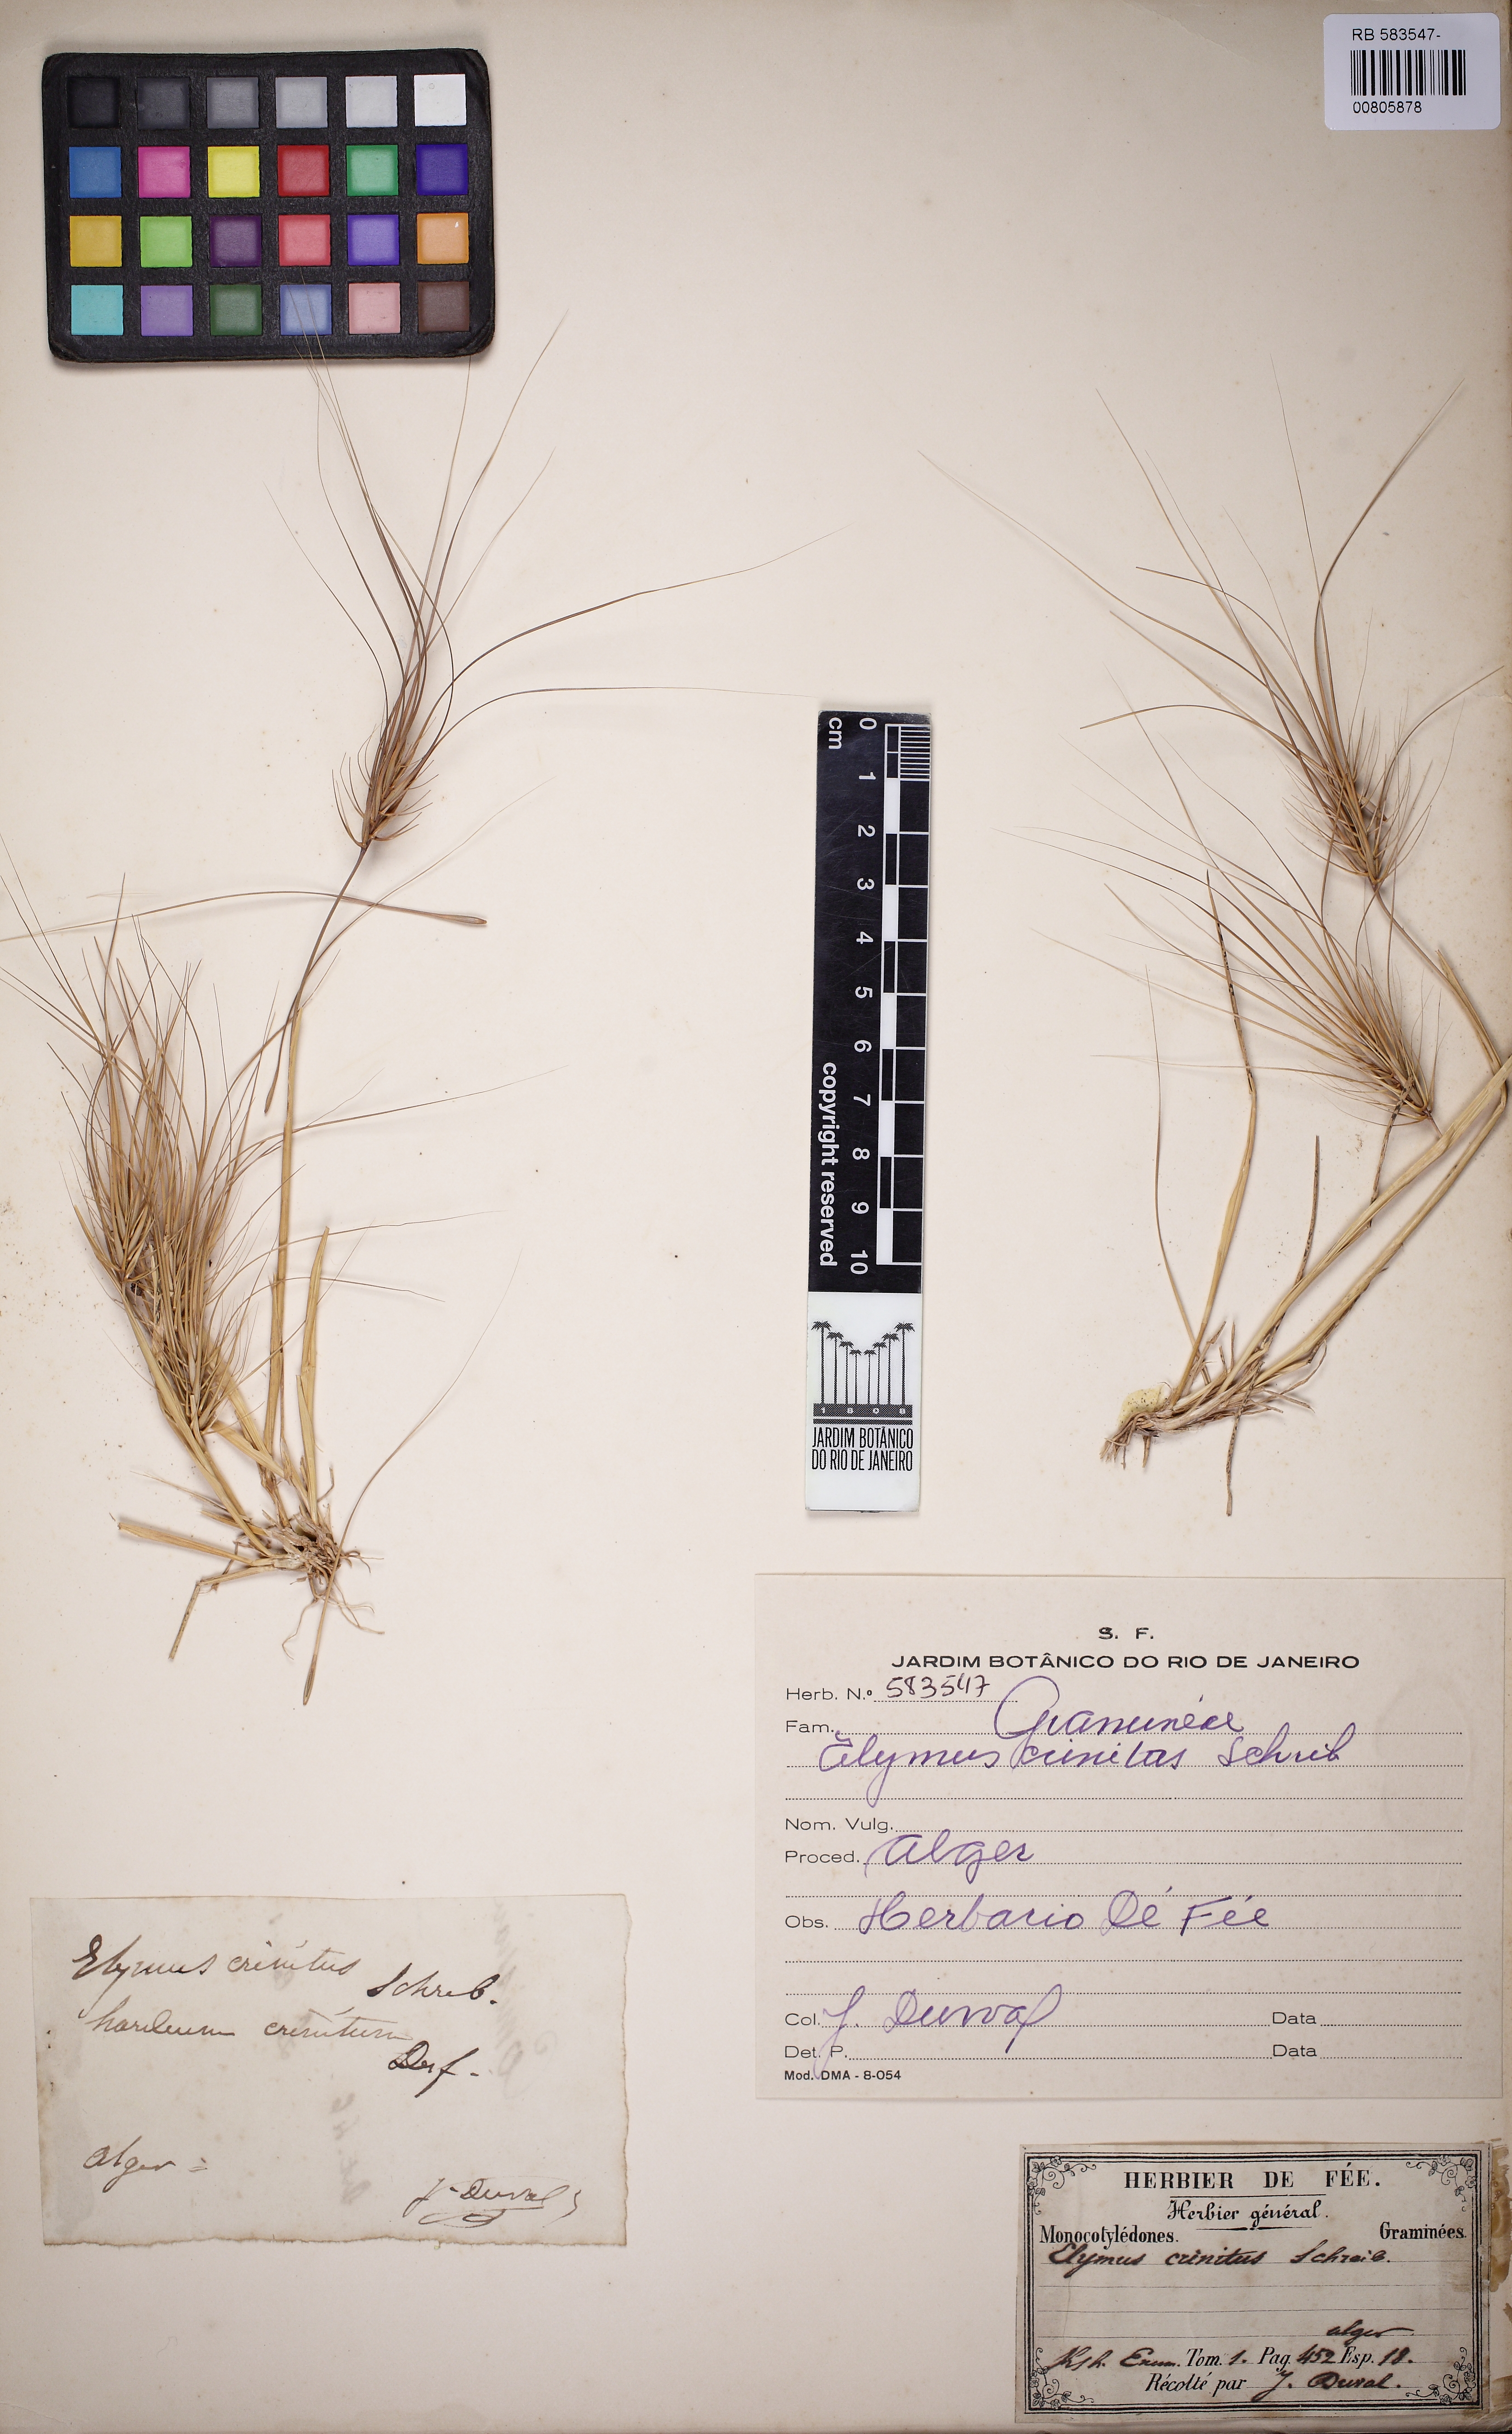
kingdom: Plantae
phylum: Tracheophyta
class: Liliopsida
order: Poales
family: Poaceae
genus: Taeniatherum
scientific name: Taeniatherum caput-medusae
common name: Medusahead
